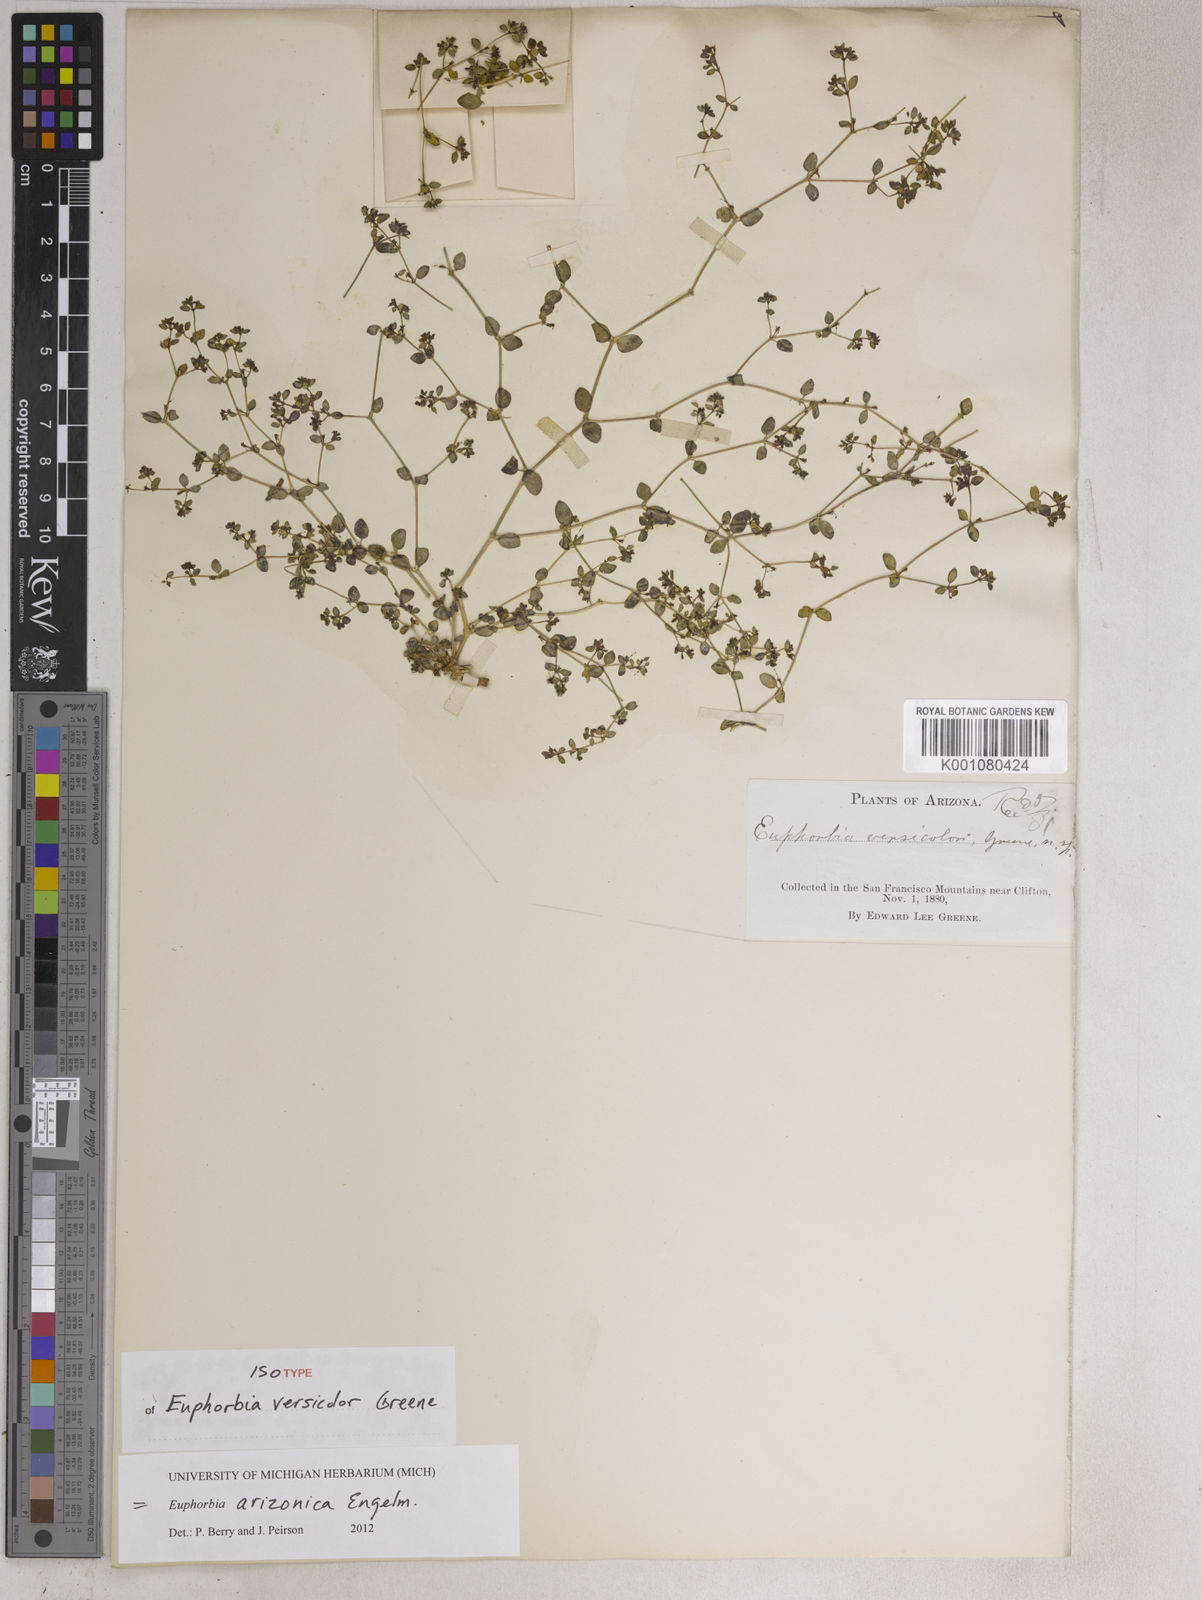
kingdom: Plantae
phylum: Tracheophyta
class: Magnoliopsida
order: Malpighiales
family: Euphorbiaceae
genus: Euphorbia
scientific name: Euphorbia arizonica
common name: Arizona spurge
